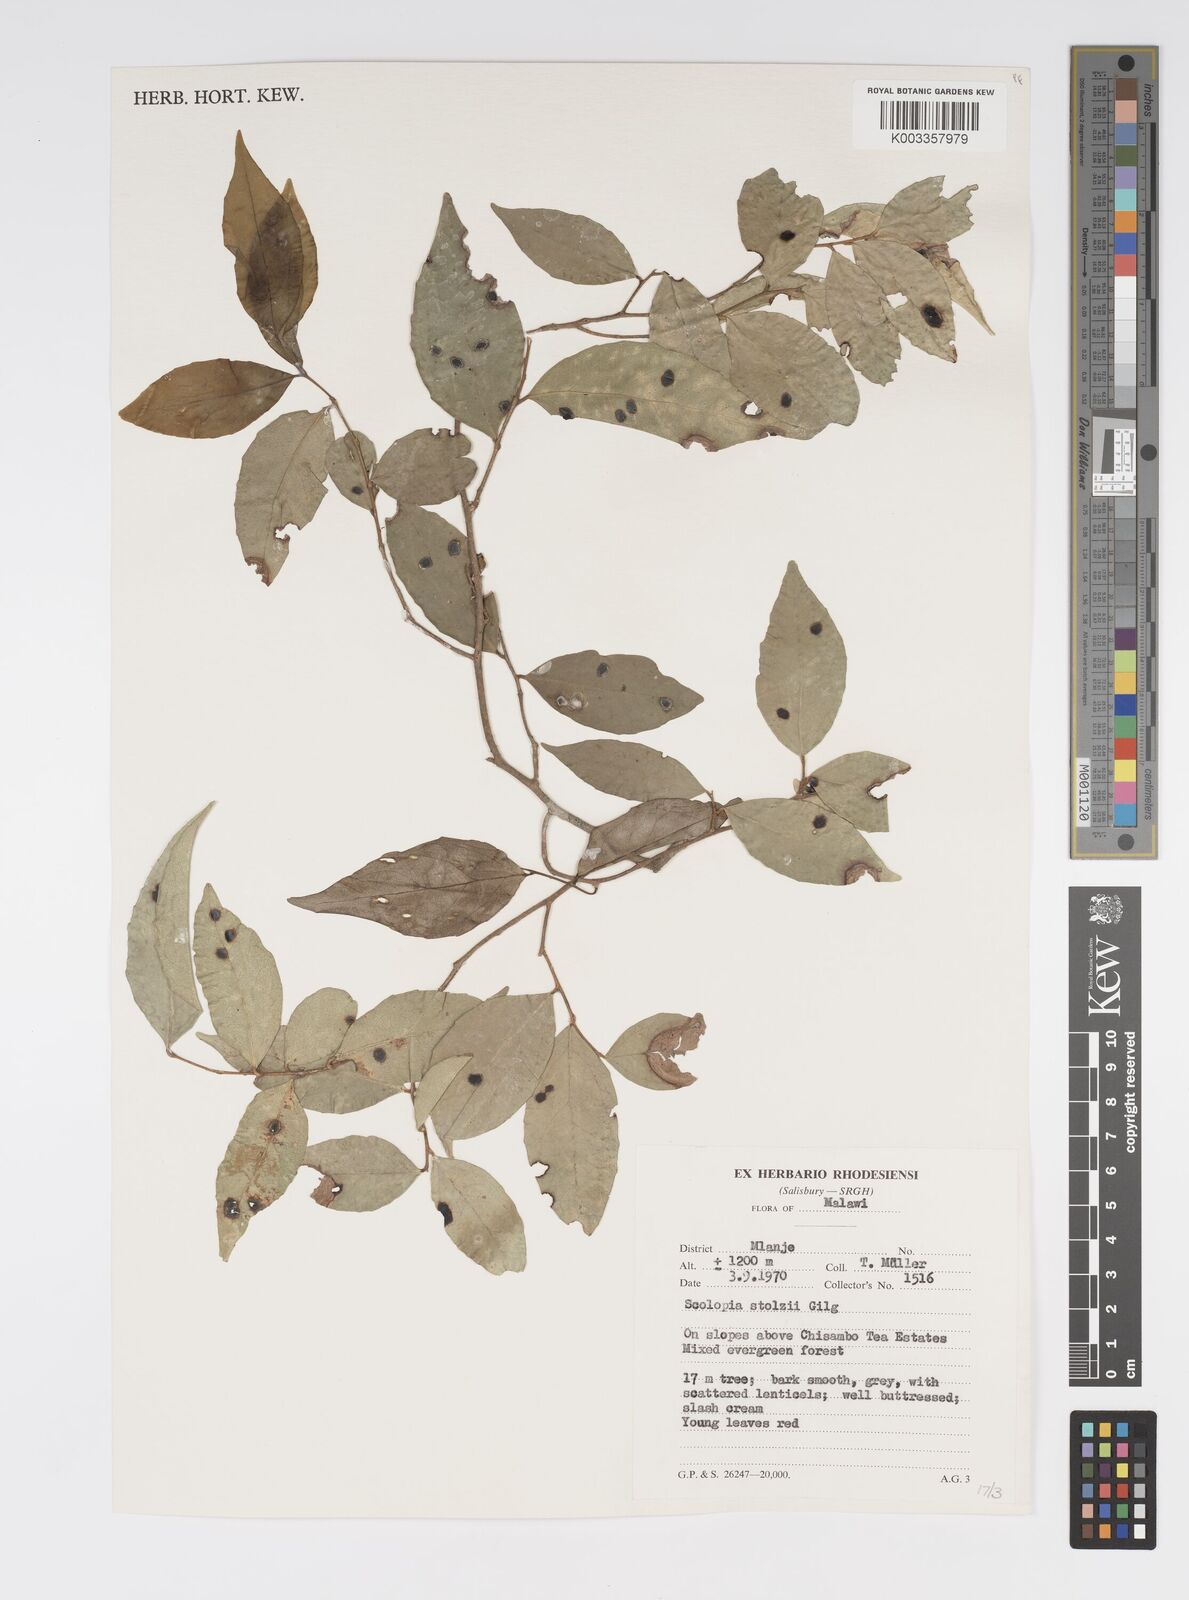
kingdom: Plantae
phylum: Tracheophyta
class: Magnoliopsida
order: Malpighiales
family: Salicaceae
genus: Scolopia
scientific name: Scolopia stolzii
